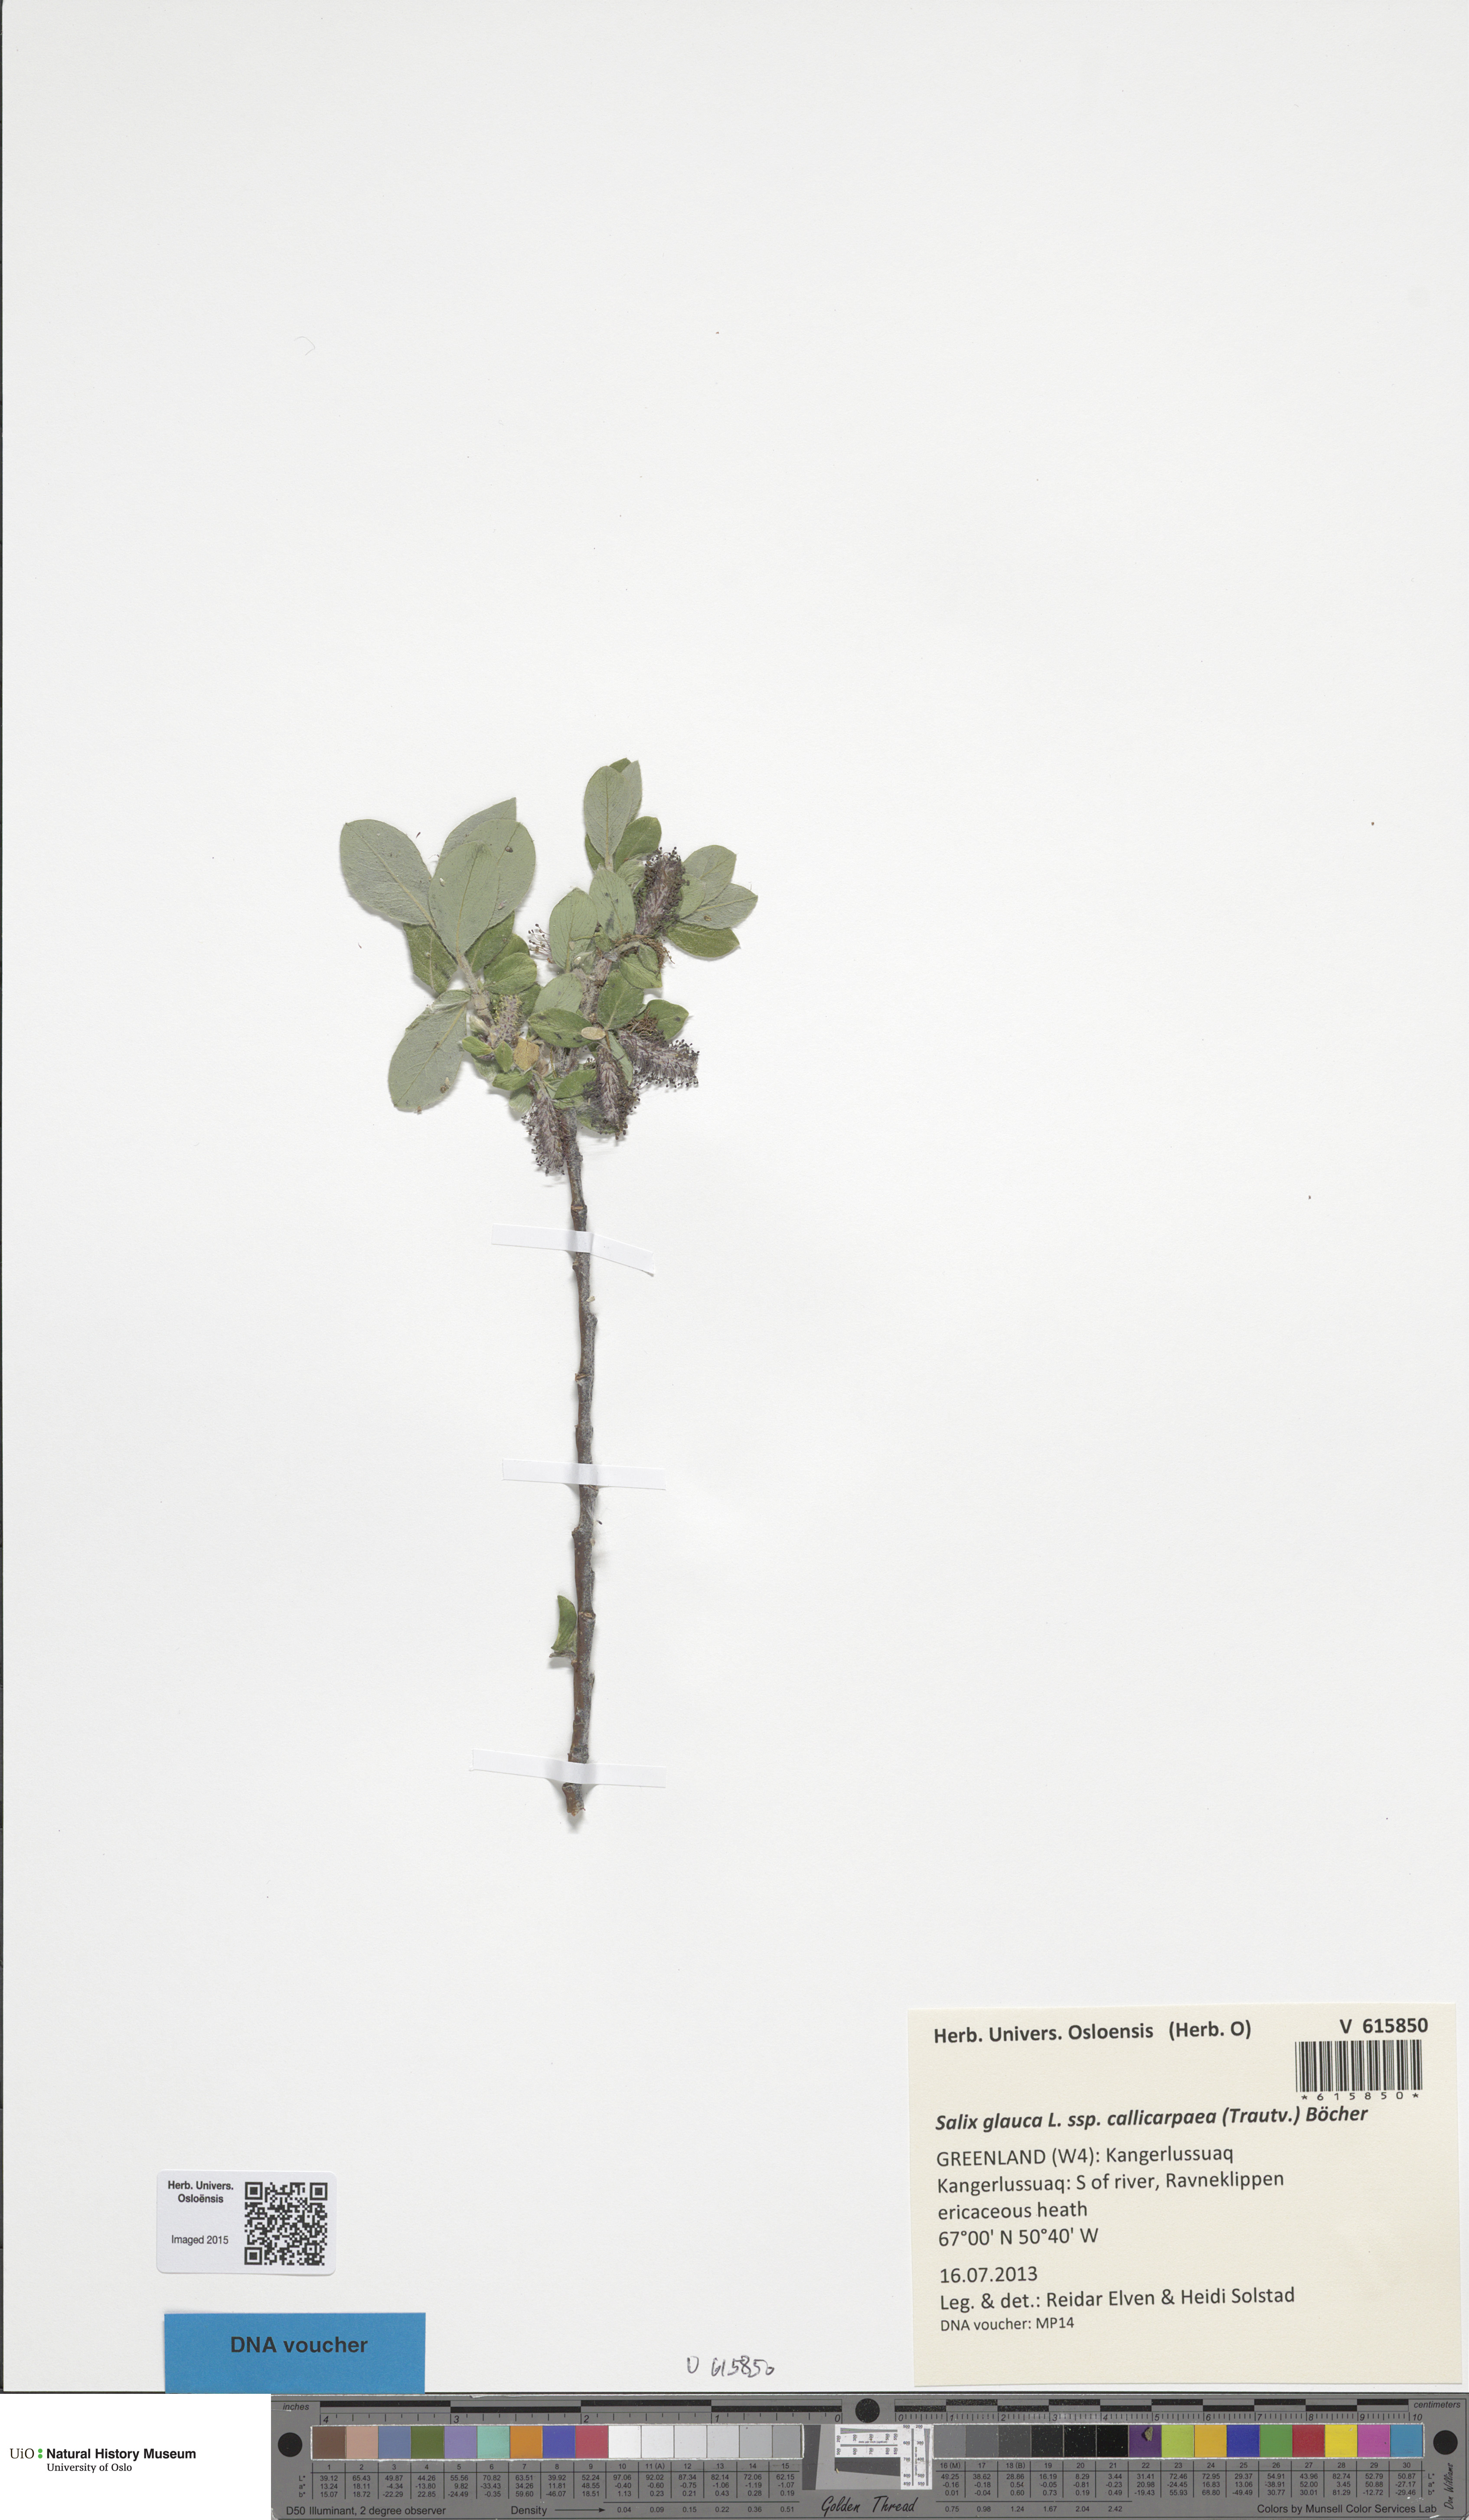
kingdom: Plantae
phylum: Tracheophyta
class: Magnoliopsida
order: Malpighiales
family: Salicaceae
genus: Salix
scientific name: Salix glauca
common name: Glaucous willow
